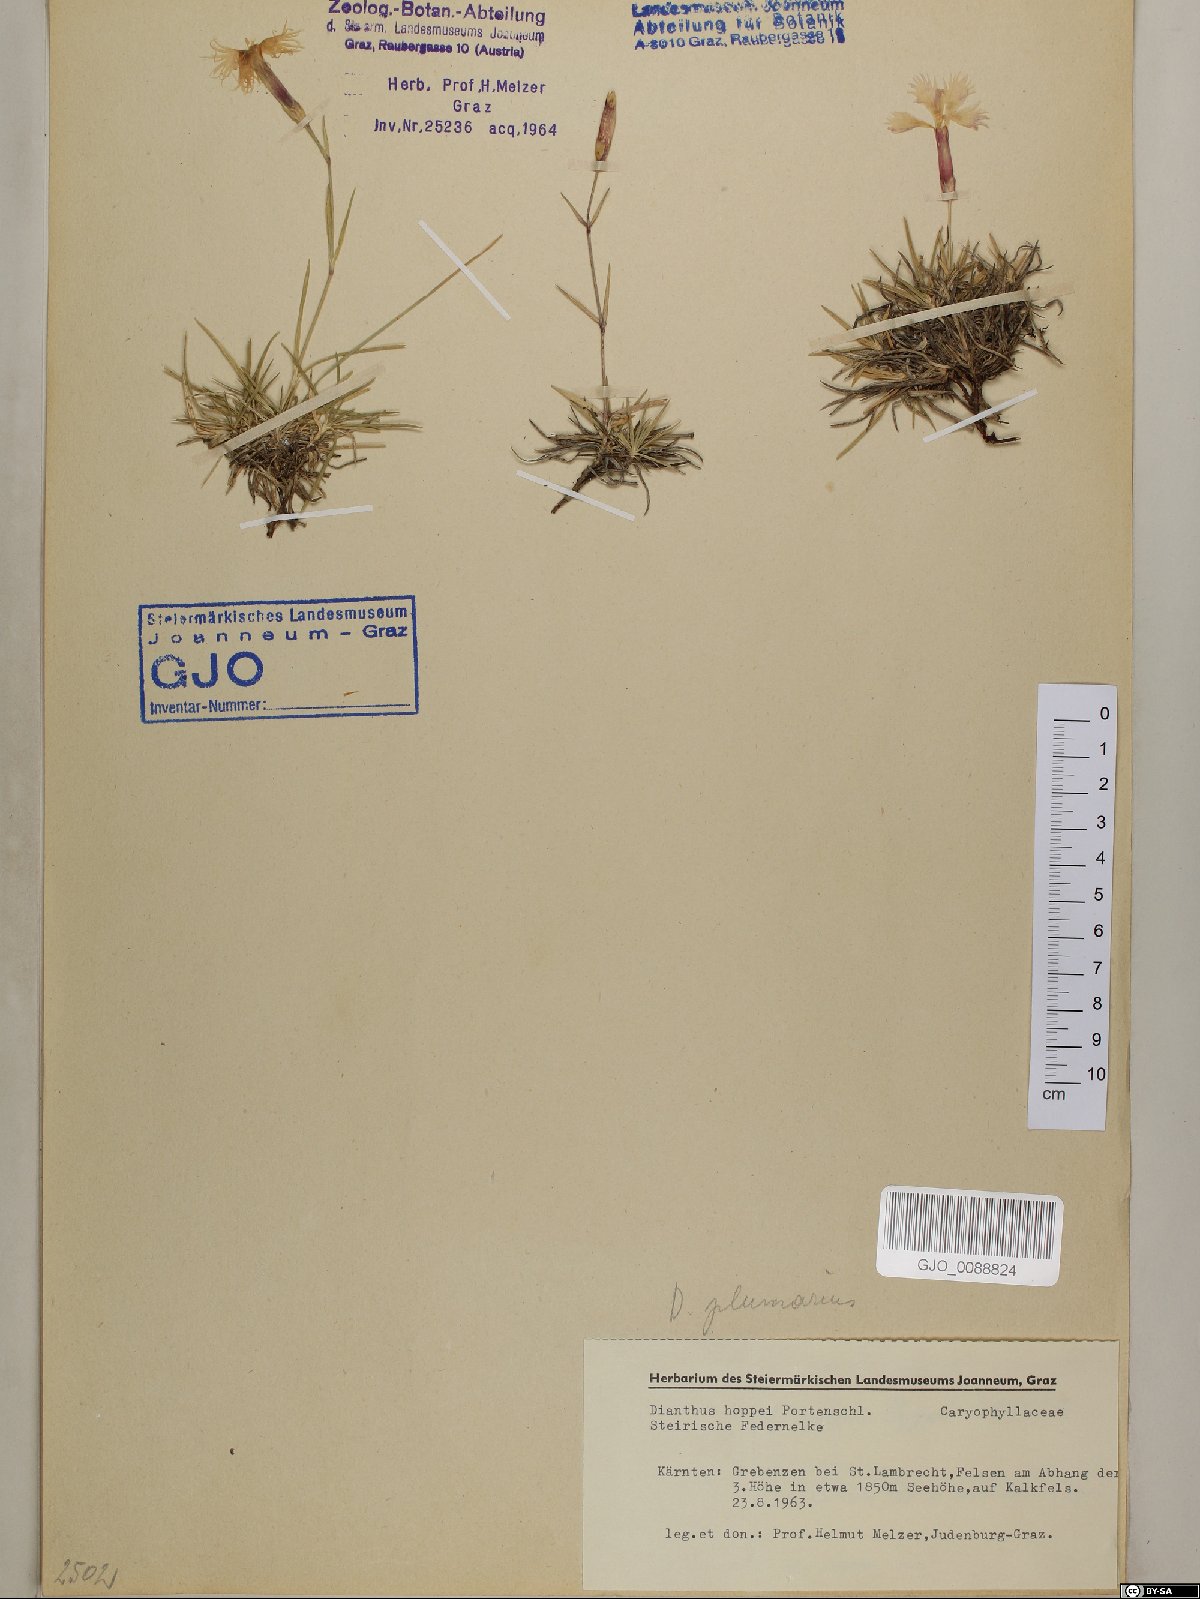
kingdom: Plantae
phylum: Tracheophyta
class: Magnoliopsida
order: Caryophyllales
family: Caryophyllaceae
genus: Dianthus
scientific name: Dianthus plumarius
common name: Pink
